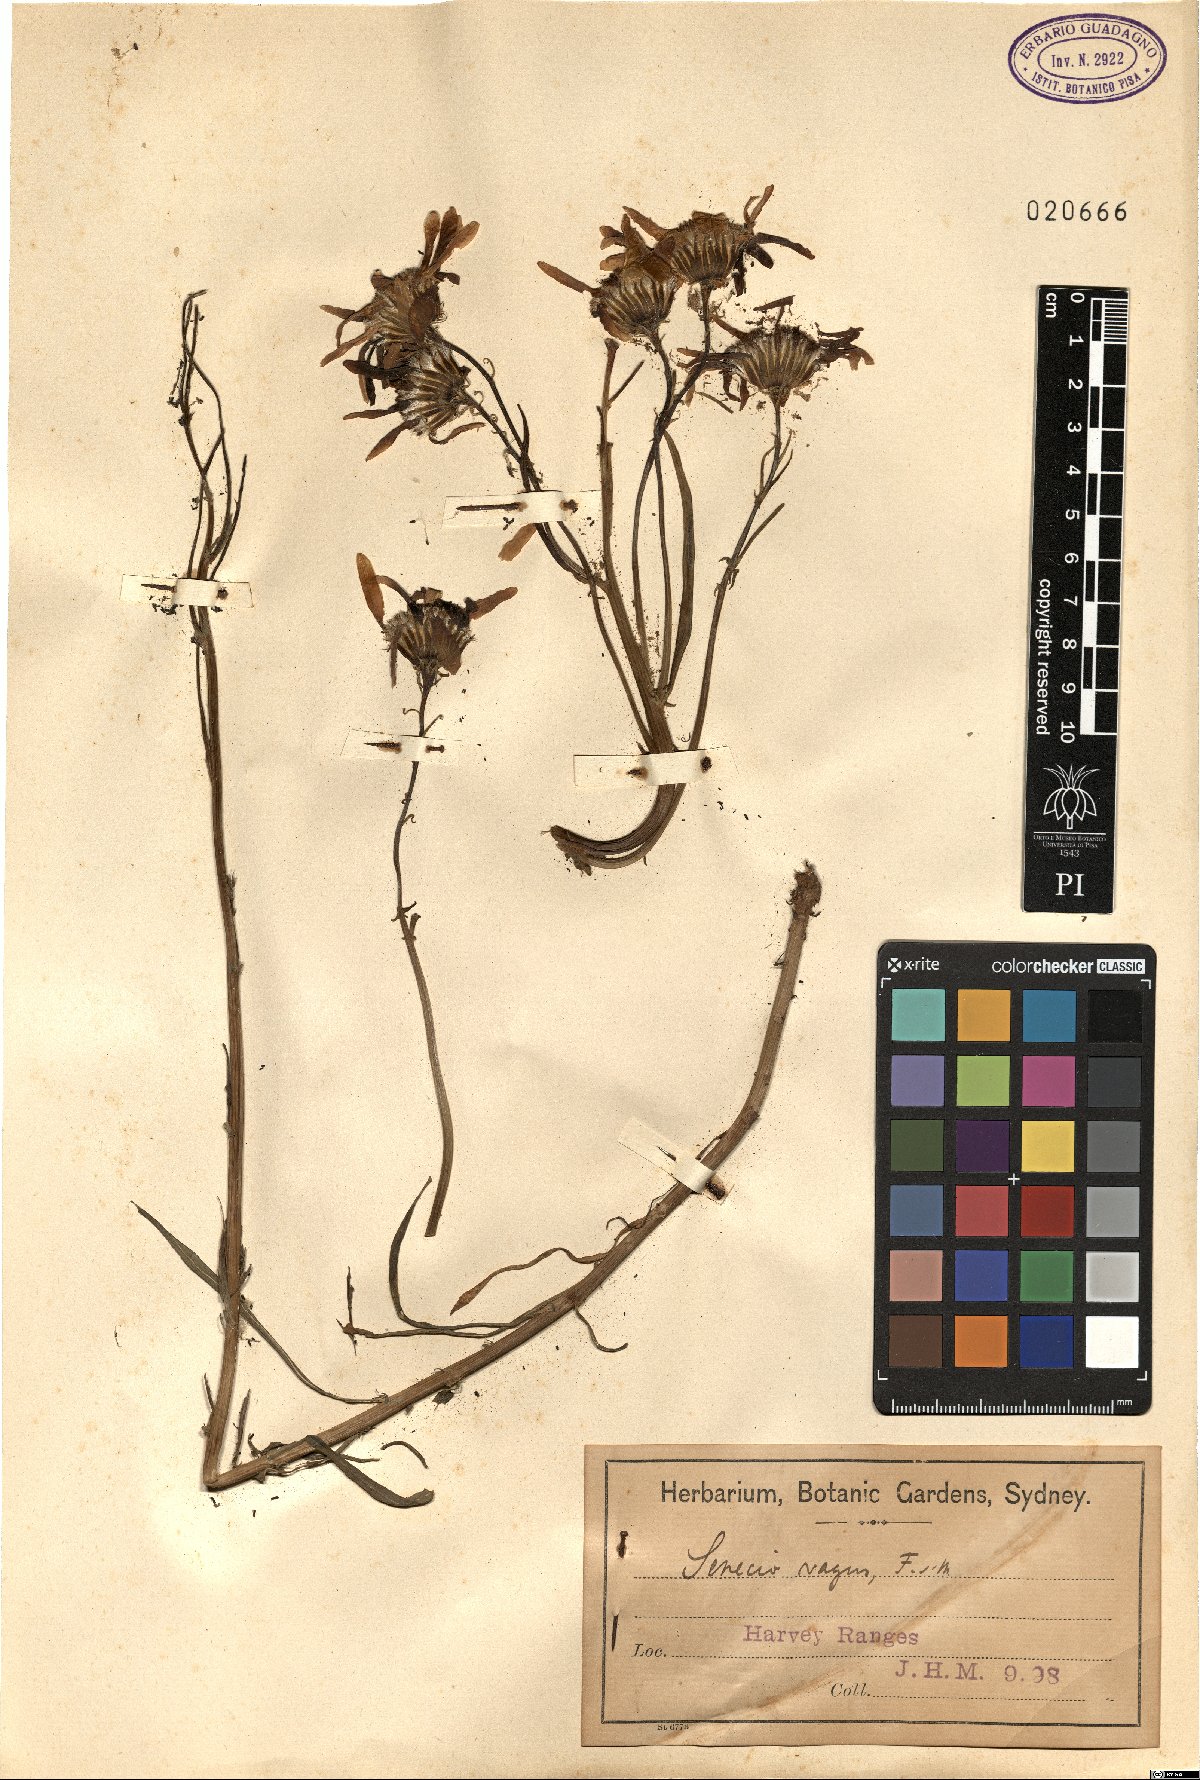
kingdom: Plantae
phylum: Tracheophyta
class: Magnoliopsida
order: Asterales
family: Asteraceae
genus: Senecio
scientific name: Senecio vagus
